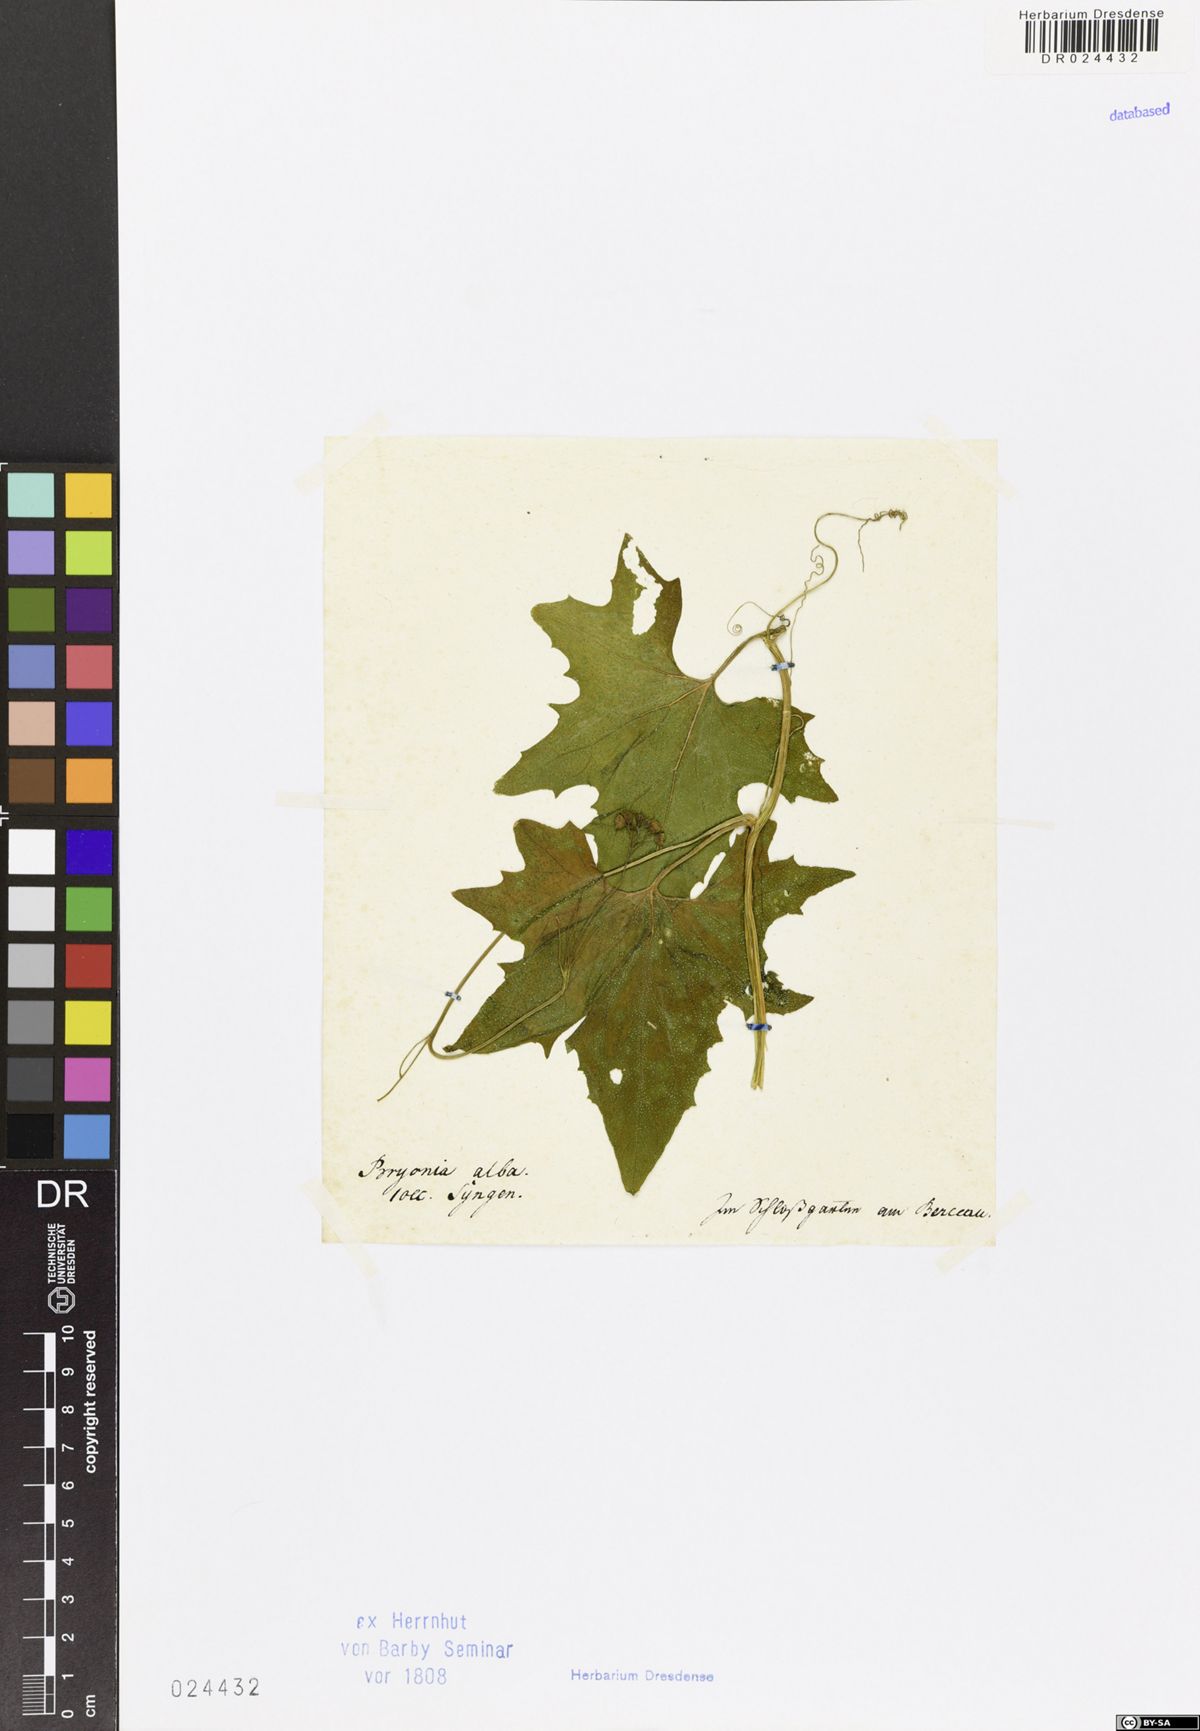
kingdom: Plantae
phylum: Tracheophyta
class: Magnoliopsida
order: Cucurbitales
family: Cucurbitaceae
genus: Bryonia
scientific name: Bryonia alba
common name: White bryony
